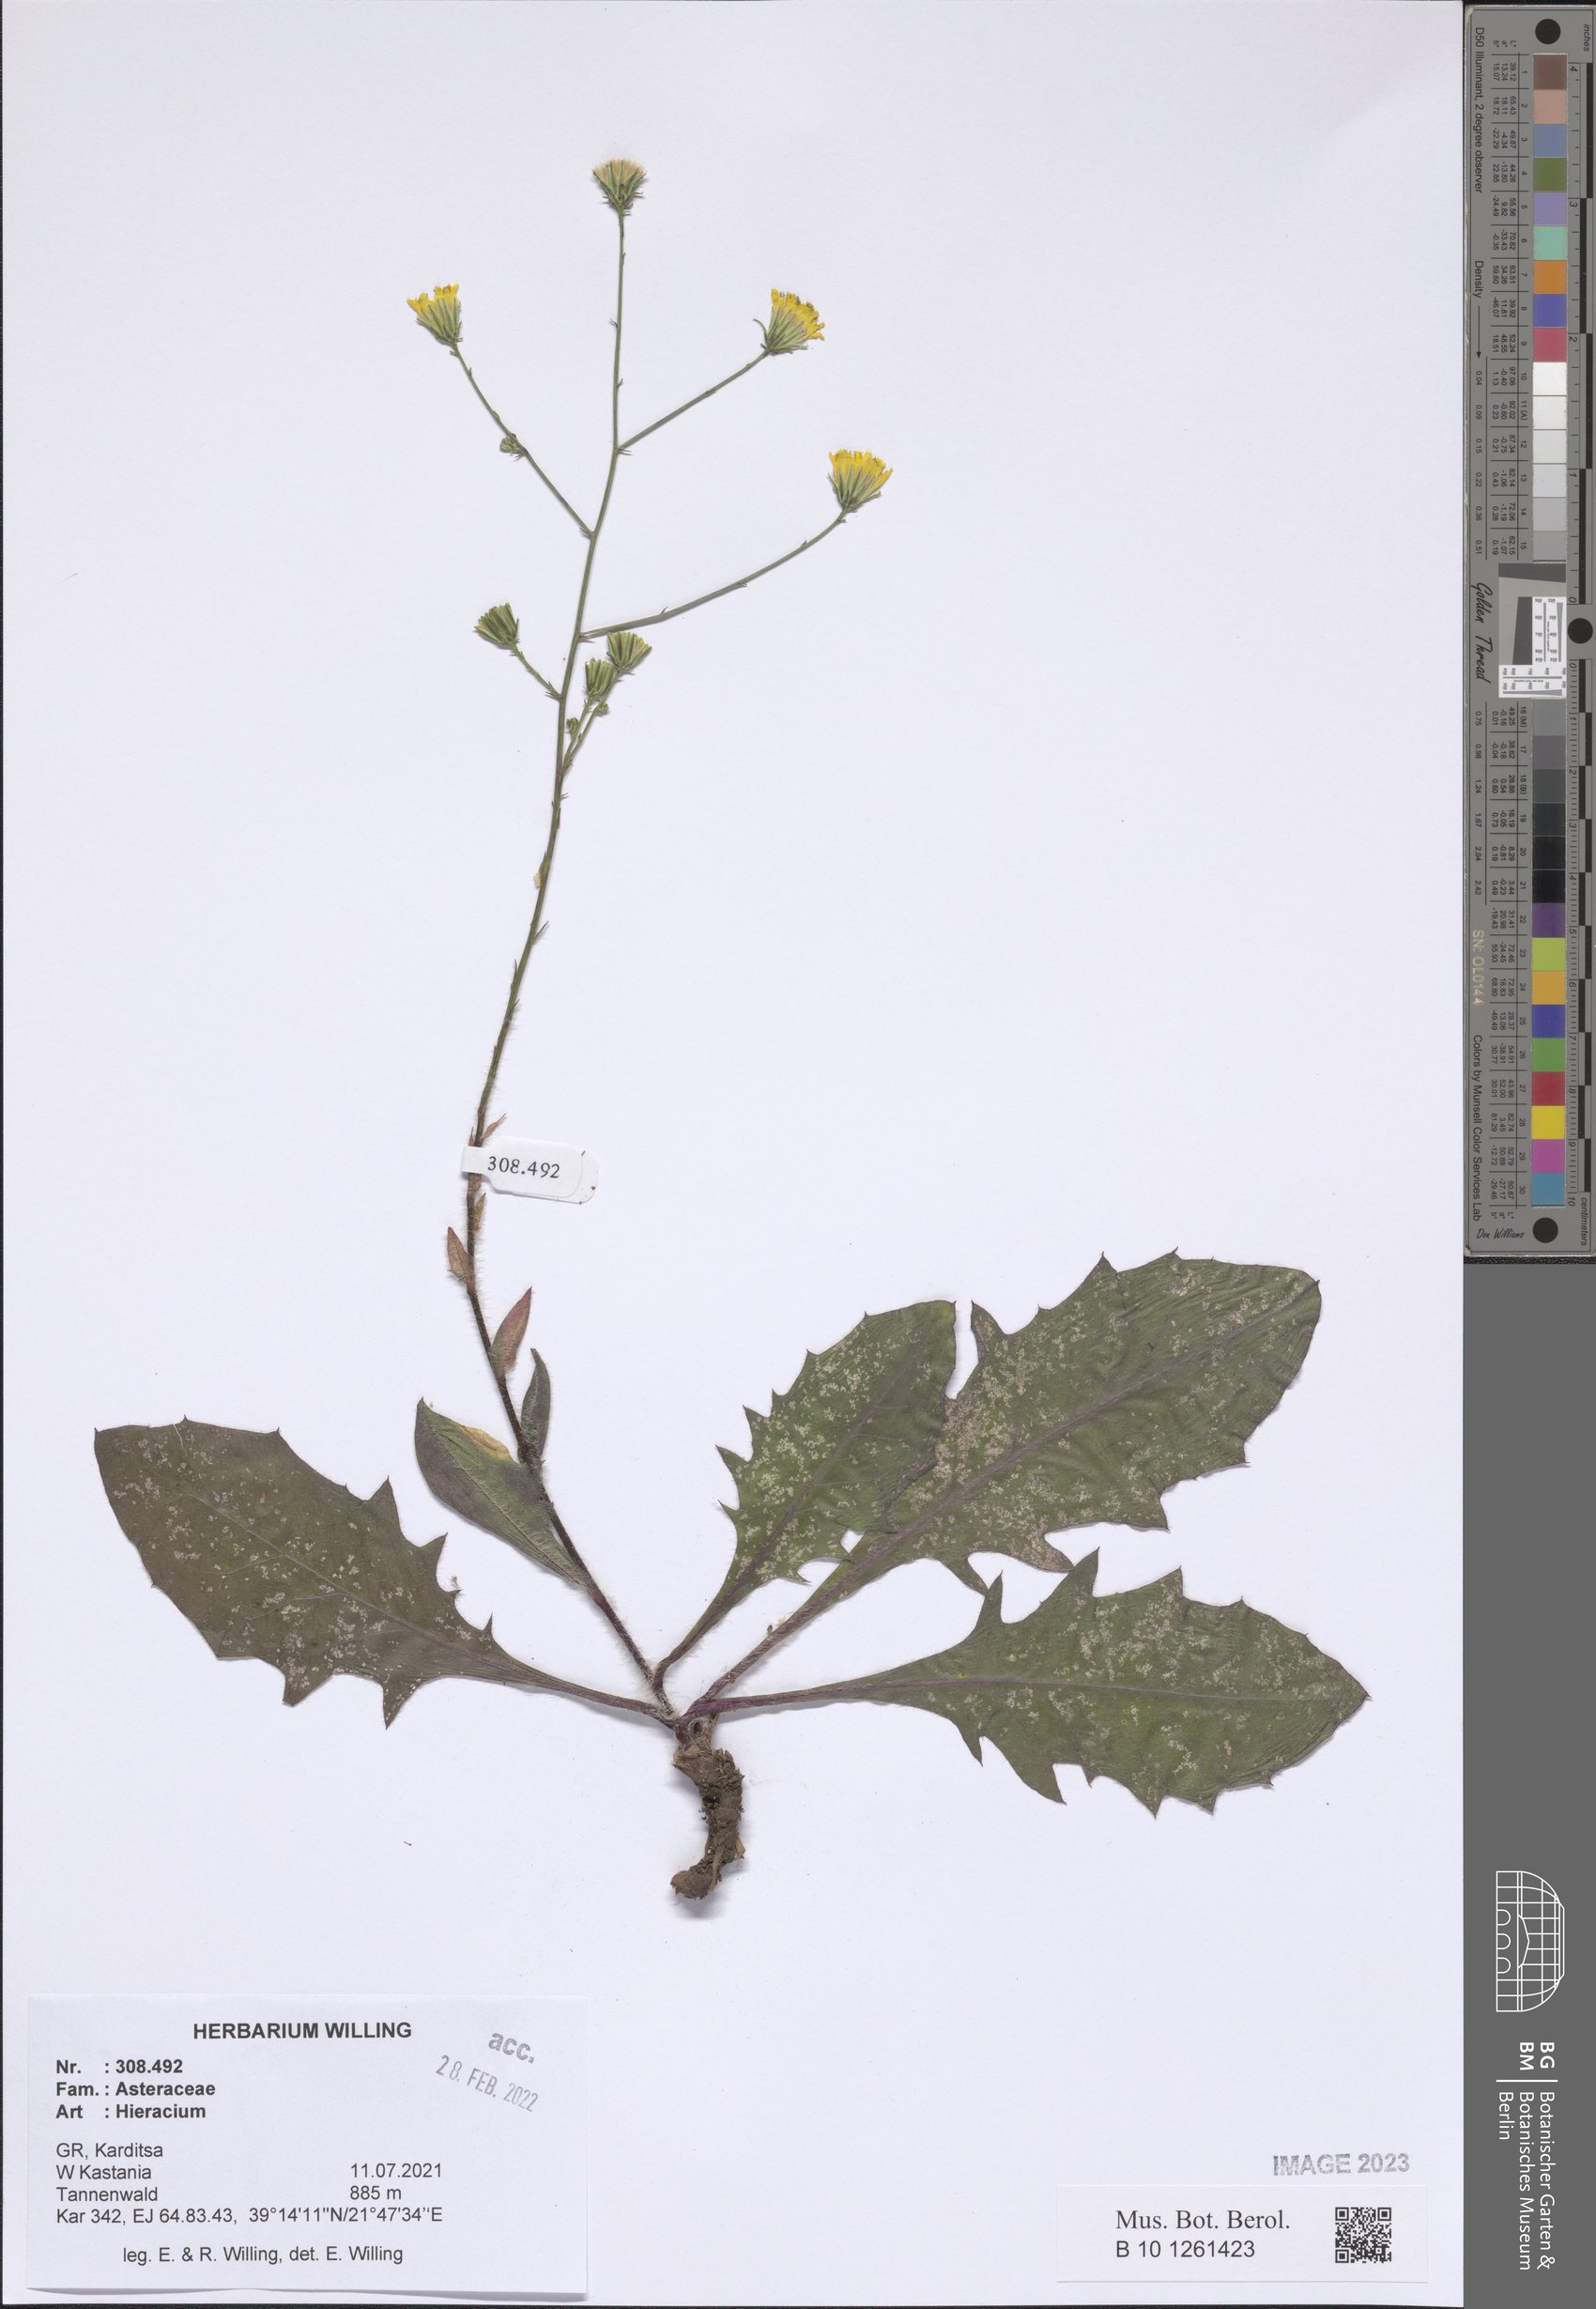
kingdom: Plantae
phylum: Tracheophyta
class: Magnoliopsida
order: Asterales
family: Asteraceae
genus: Hieracium
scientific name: Hieracium
